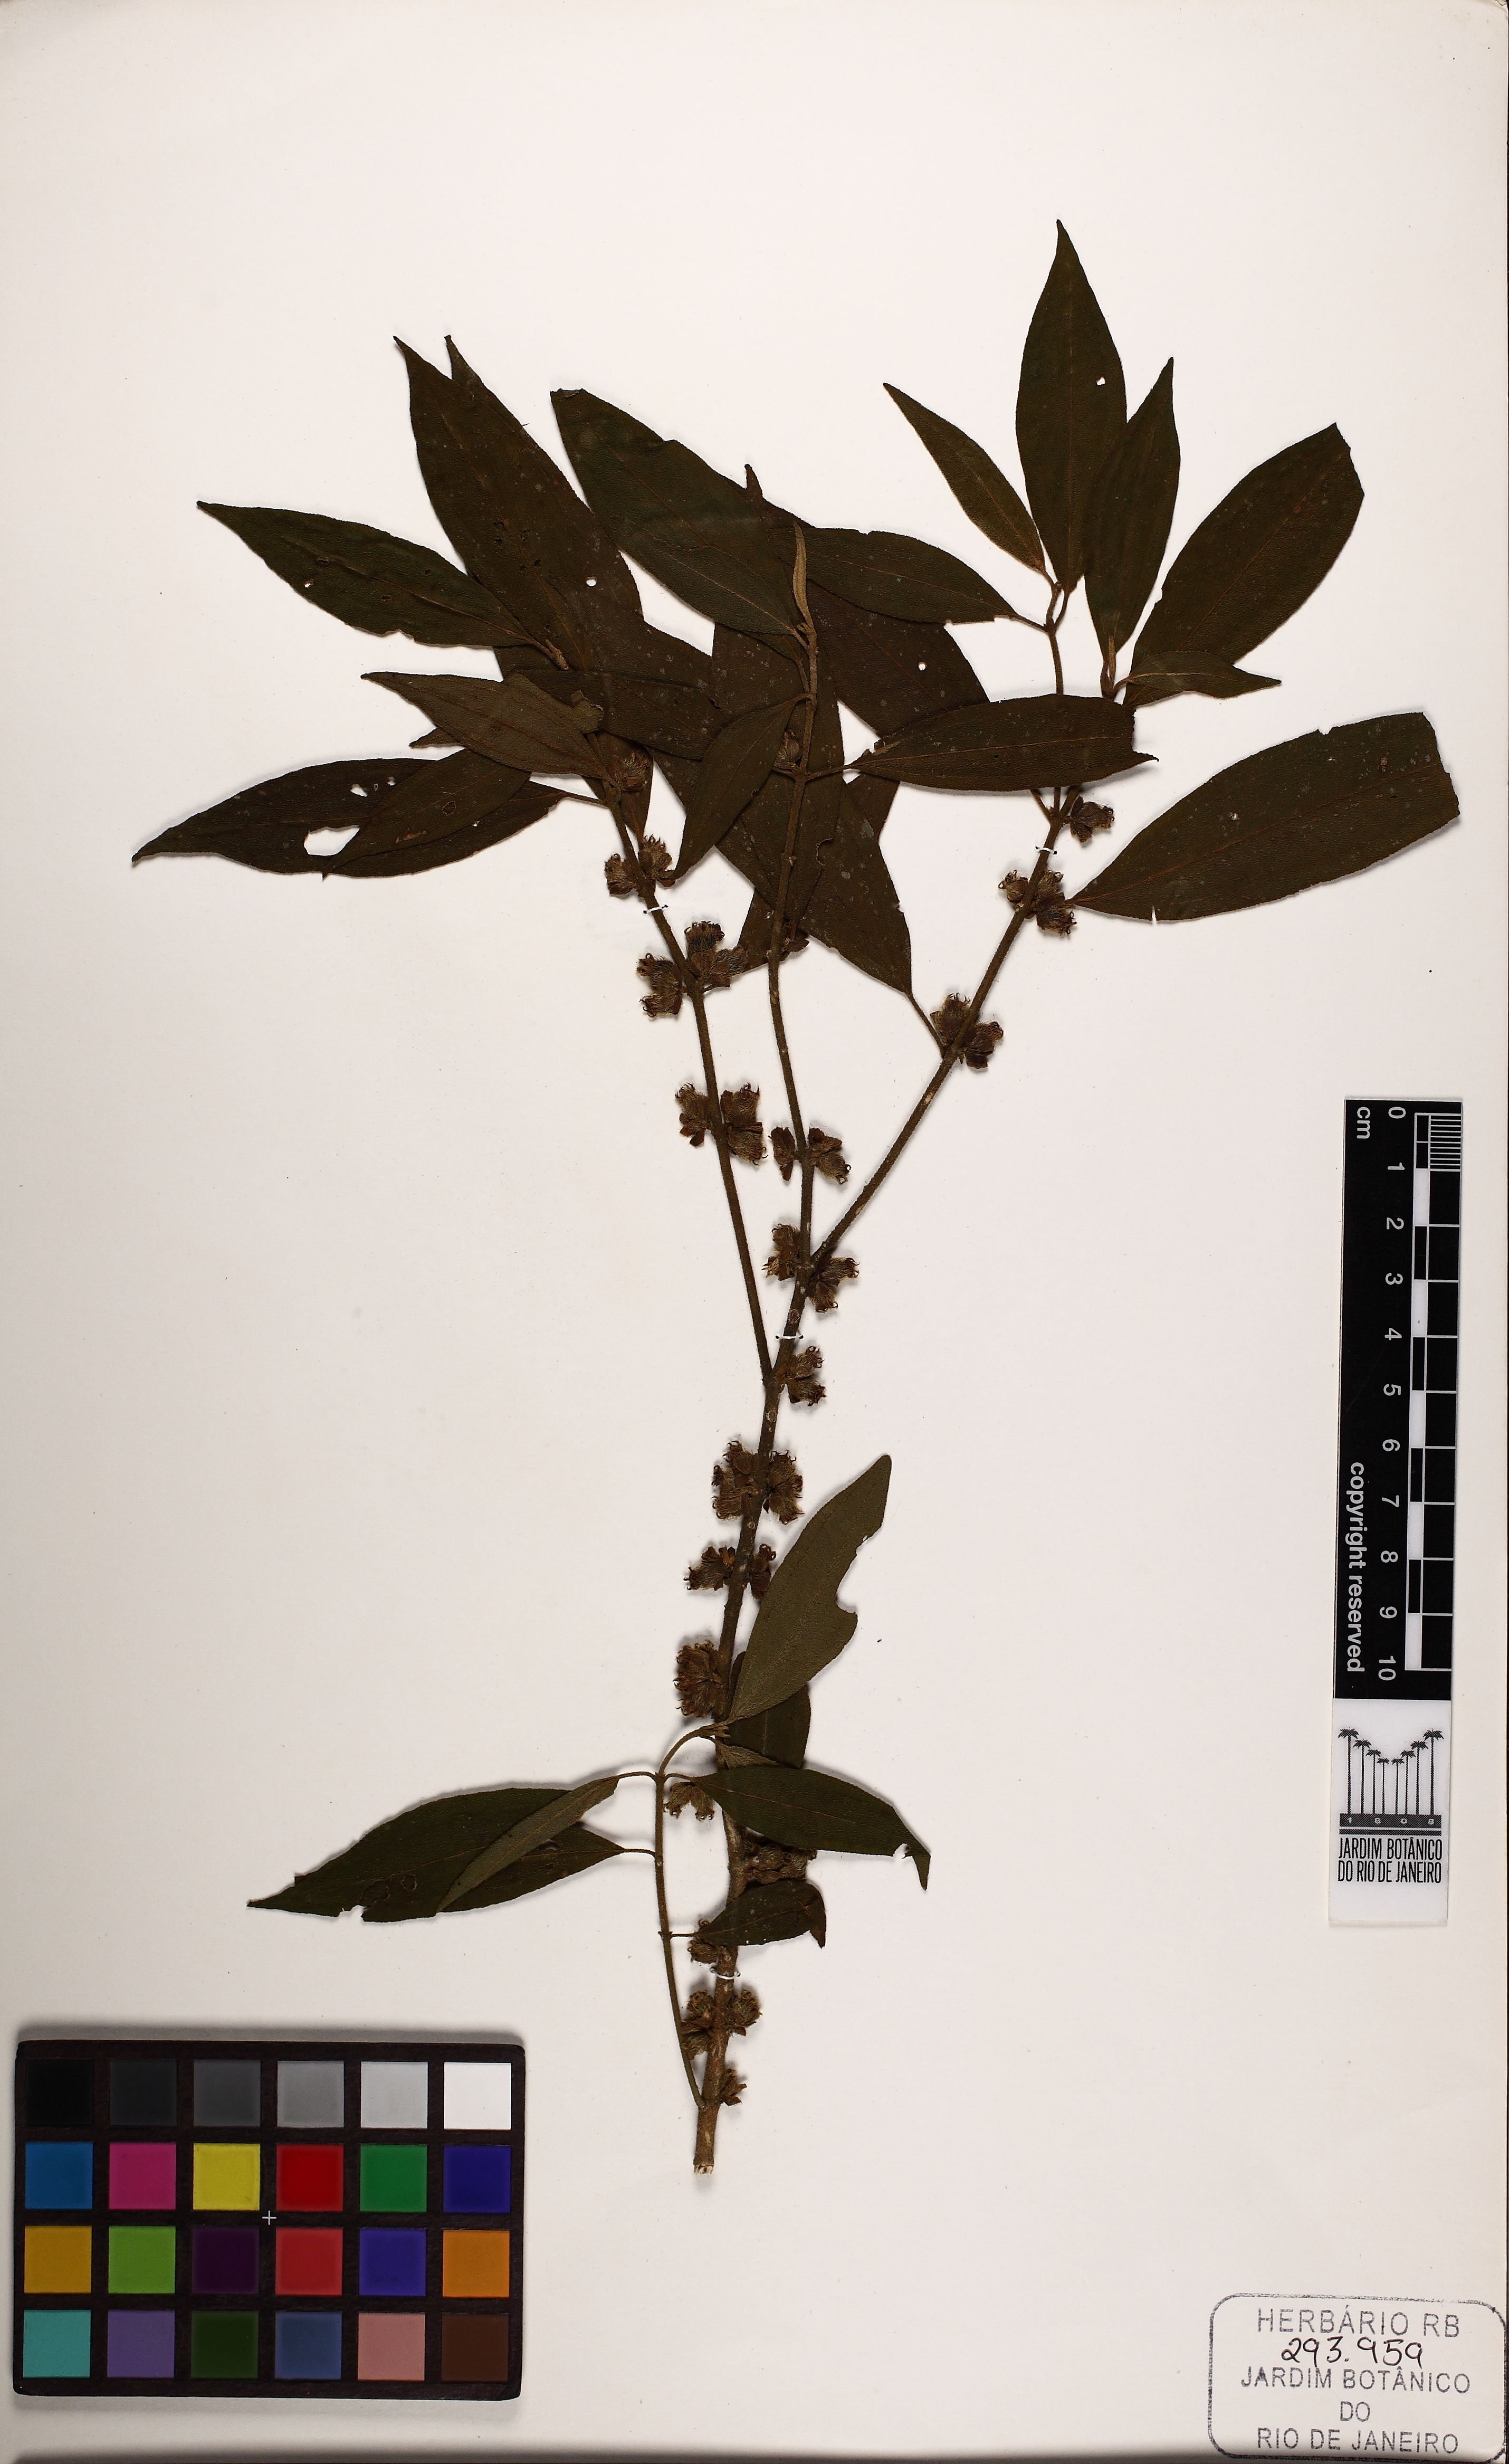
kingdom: Plantae
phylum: Tracheophyta
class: Magnoliopsida
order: Myrtales
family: Melastomataceae
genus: Miconia
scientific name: Miconia corcovadensis
